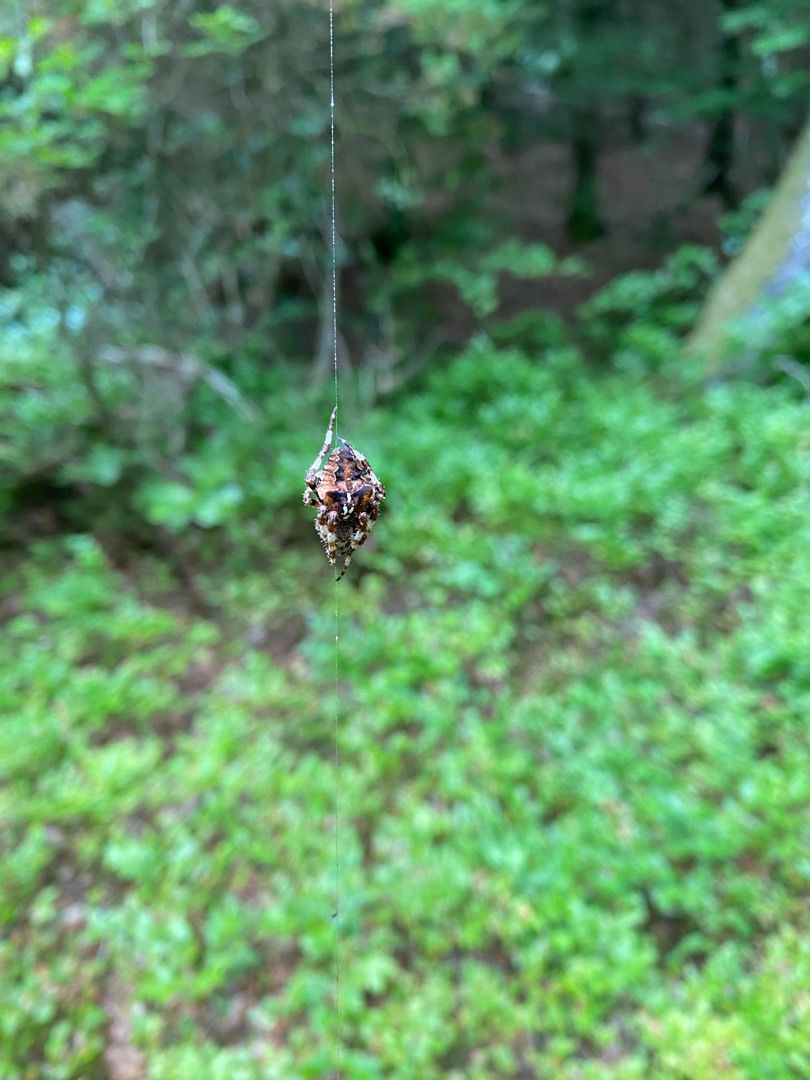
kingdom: Animalia
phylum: Arthropoda
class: Arachnida
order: Araneae
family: Araneidae
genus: Araneus
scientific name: Araneus angulatus
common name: Stor pukkelhjulspinder
